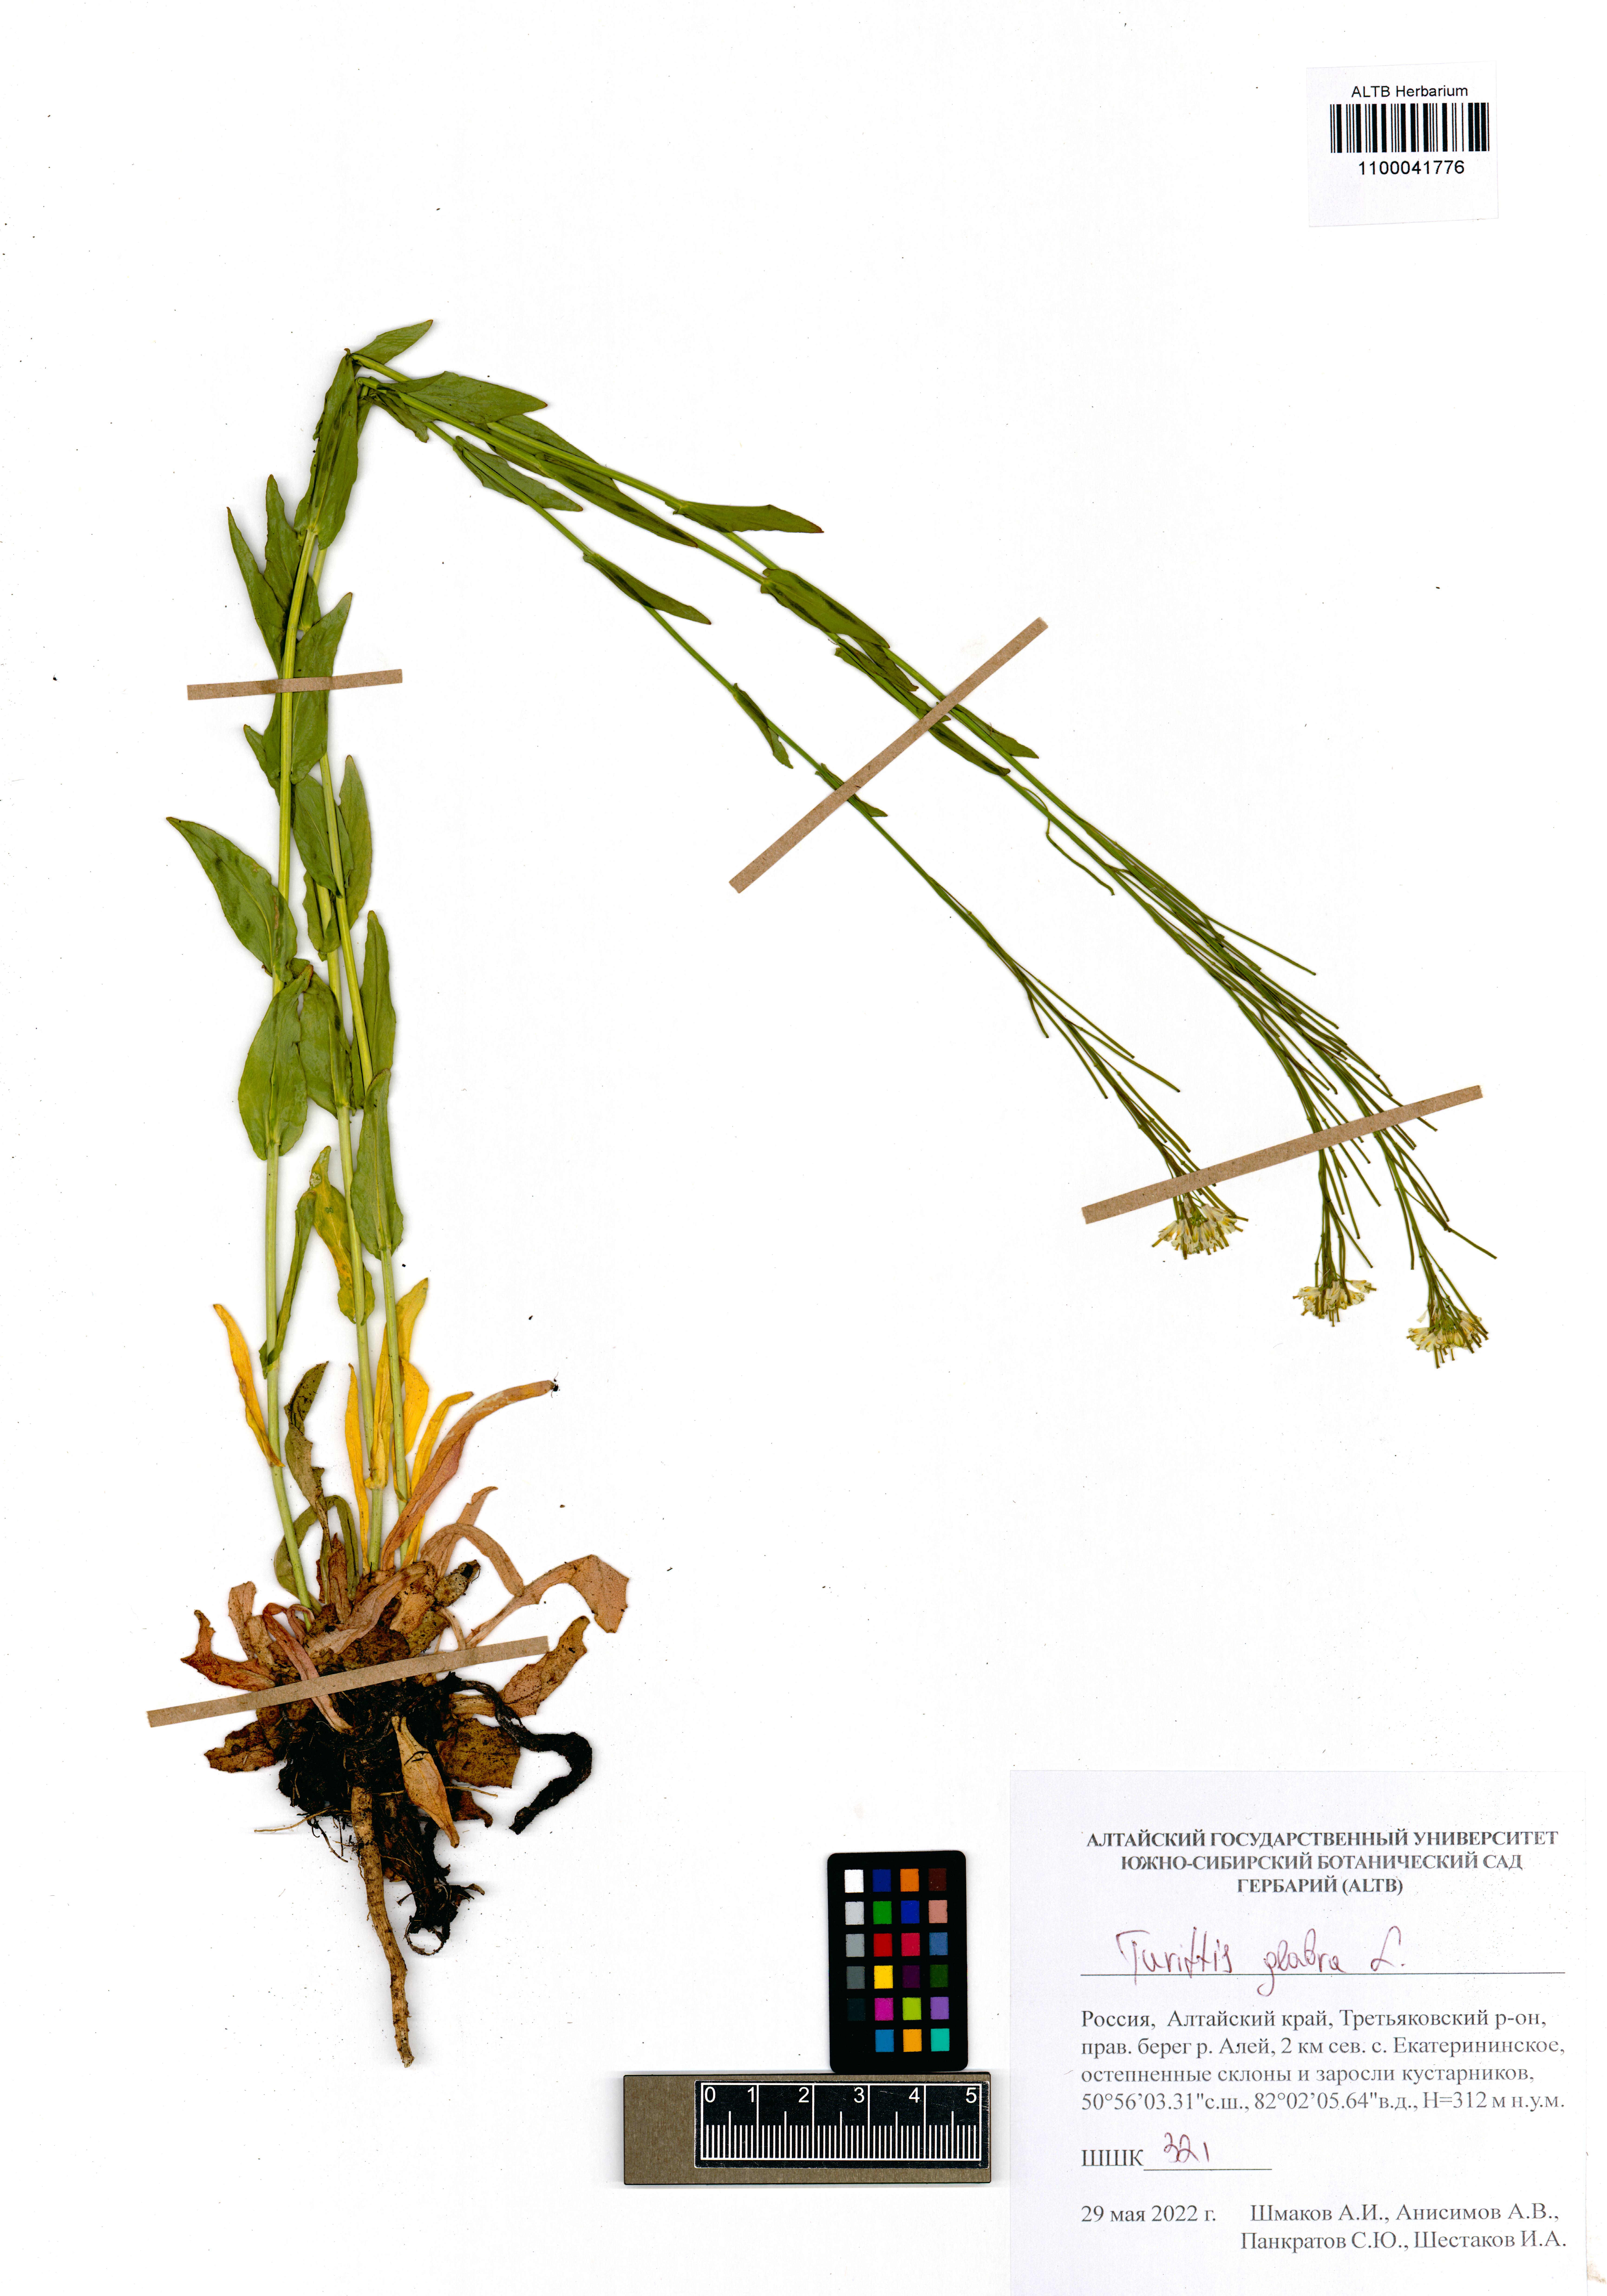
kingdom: Plantae
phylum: Tracheophyta
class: Magnoliopsida
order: Brassicales
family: Brassicaceae
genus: Turritis
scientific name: Turritis glabra
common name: Tower rockcress
